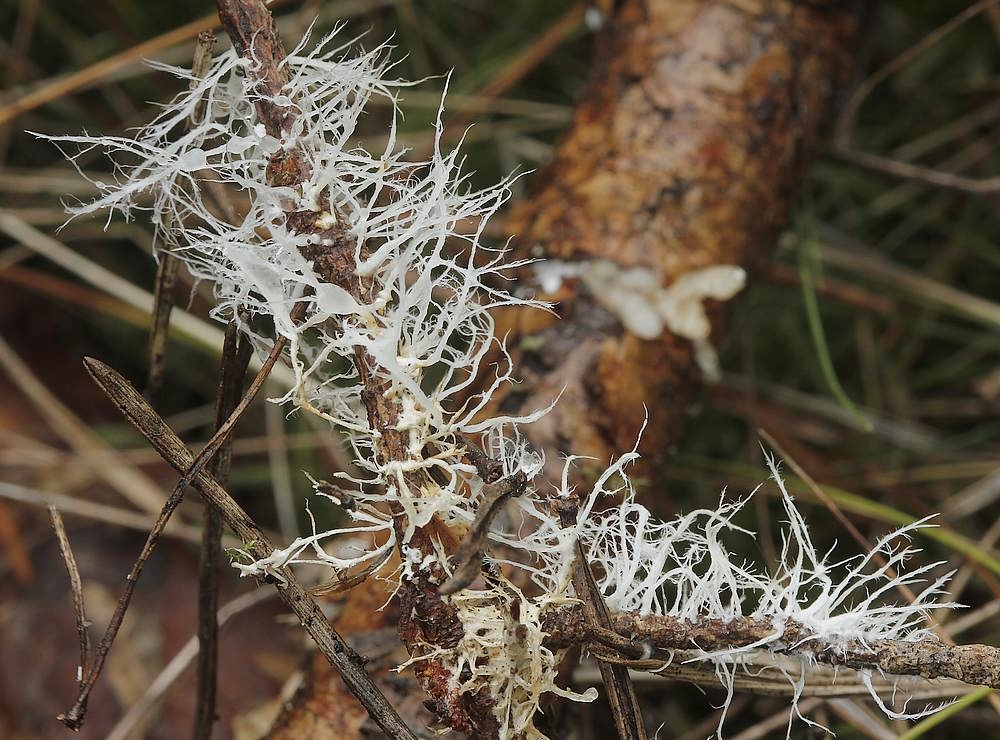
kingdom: Fungi
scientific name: Fungi
